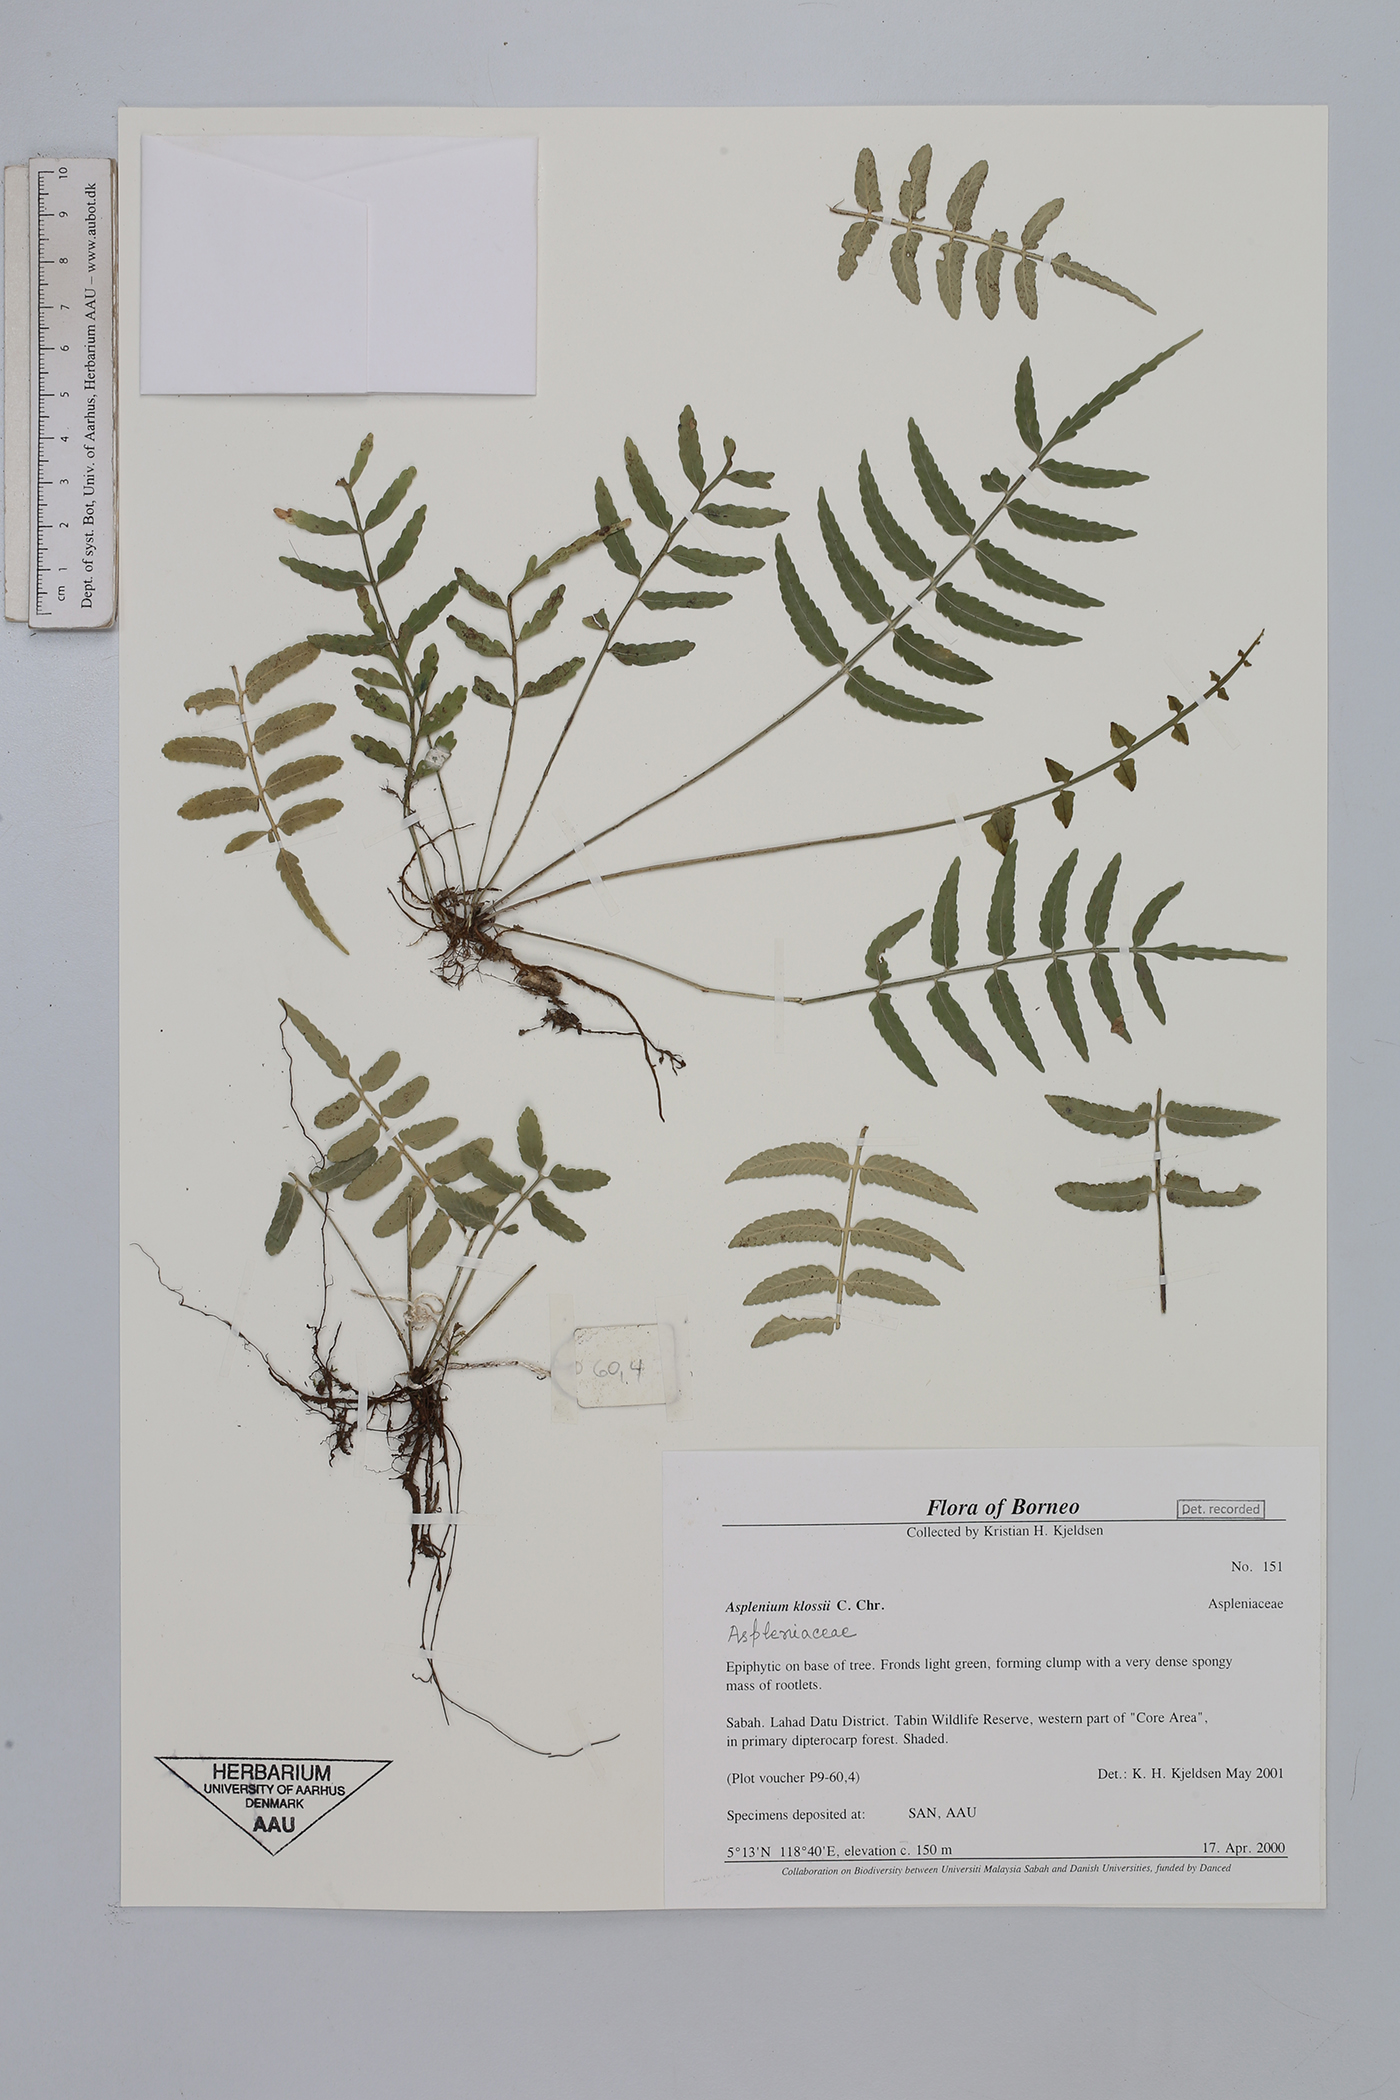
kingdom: Plantae
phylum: Tracheophyta
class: Polypodiopsida
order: Polypodiales
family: Aspleniaceae
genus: Asplenium
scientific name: Asplenium klossii
